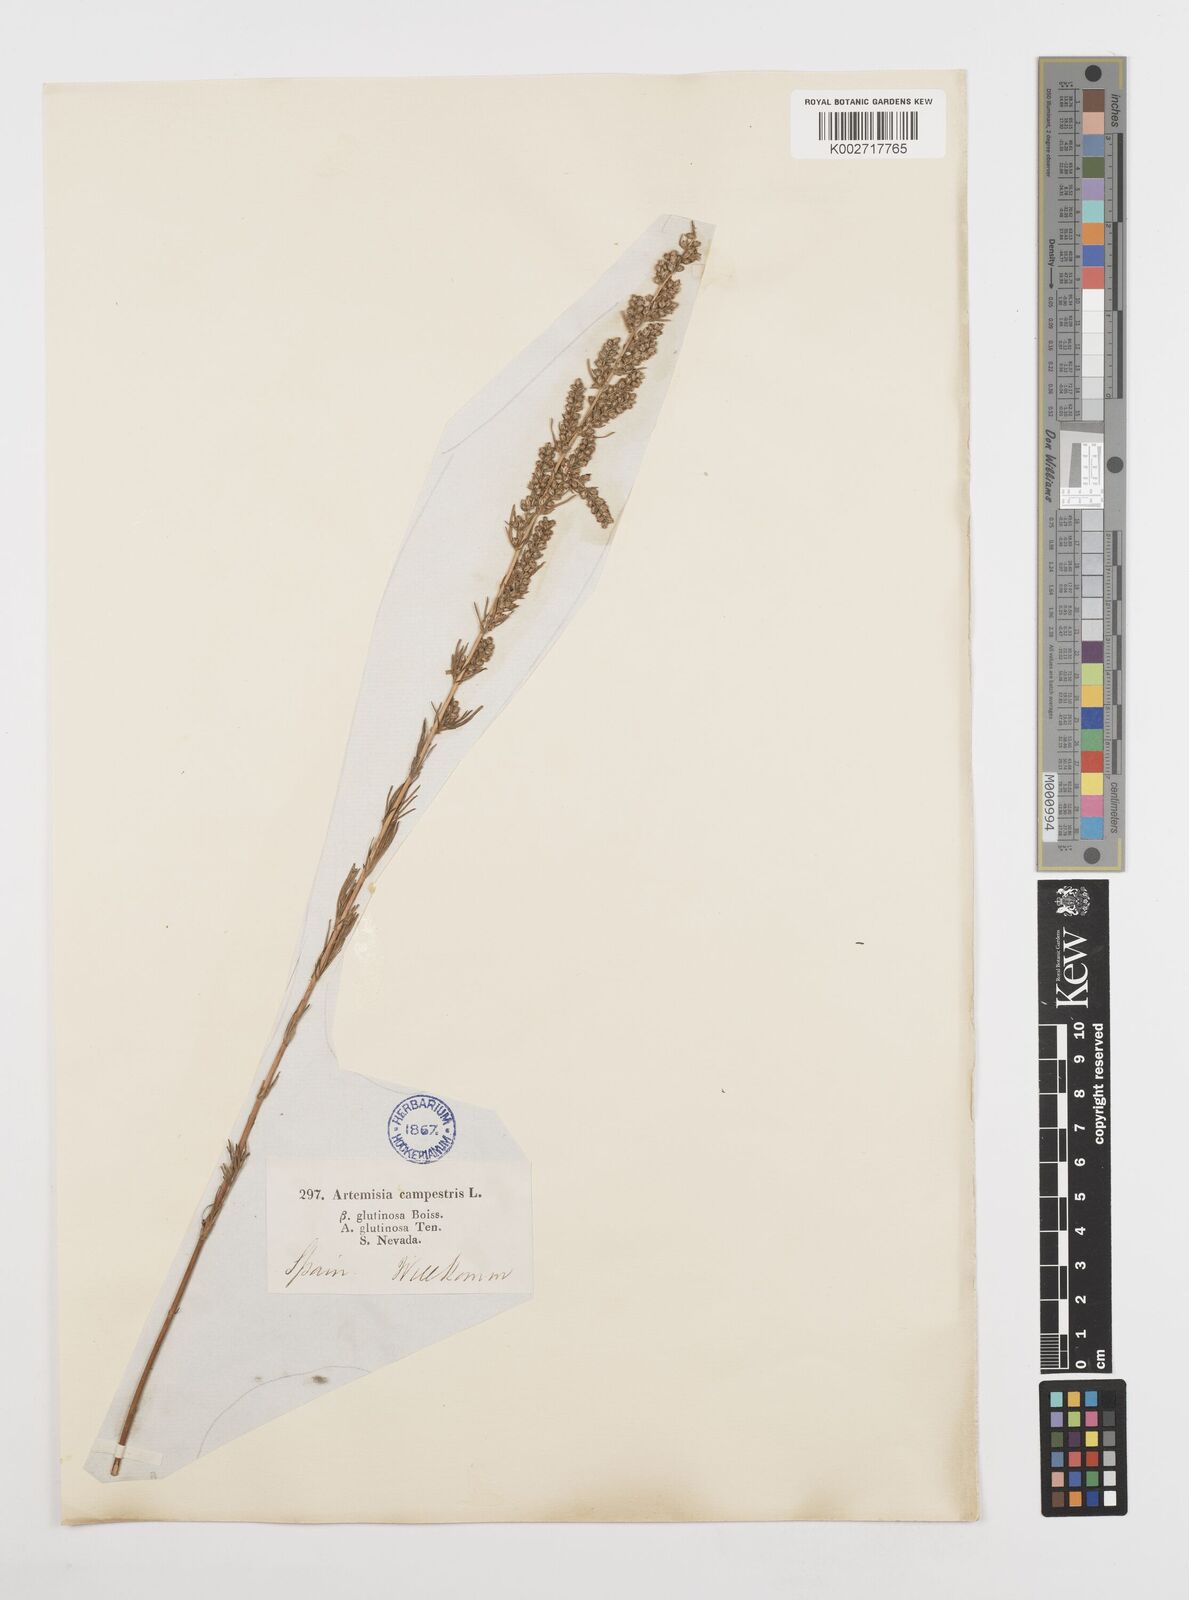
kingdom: Plantae
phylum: Tracheophyta
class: Magnoliopsida
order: Asterales
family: Asteraceae
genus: Artemisia
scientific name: Artemisia campestris
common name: Field wormwood
